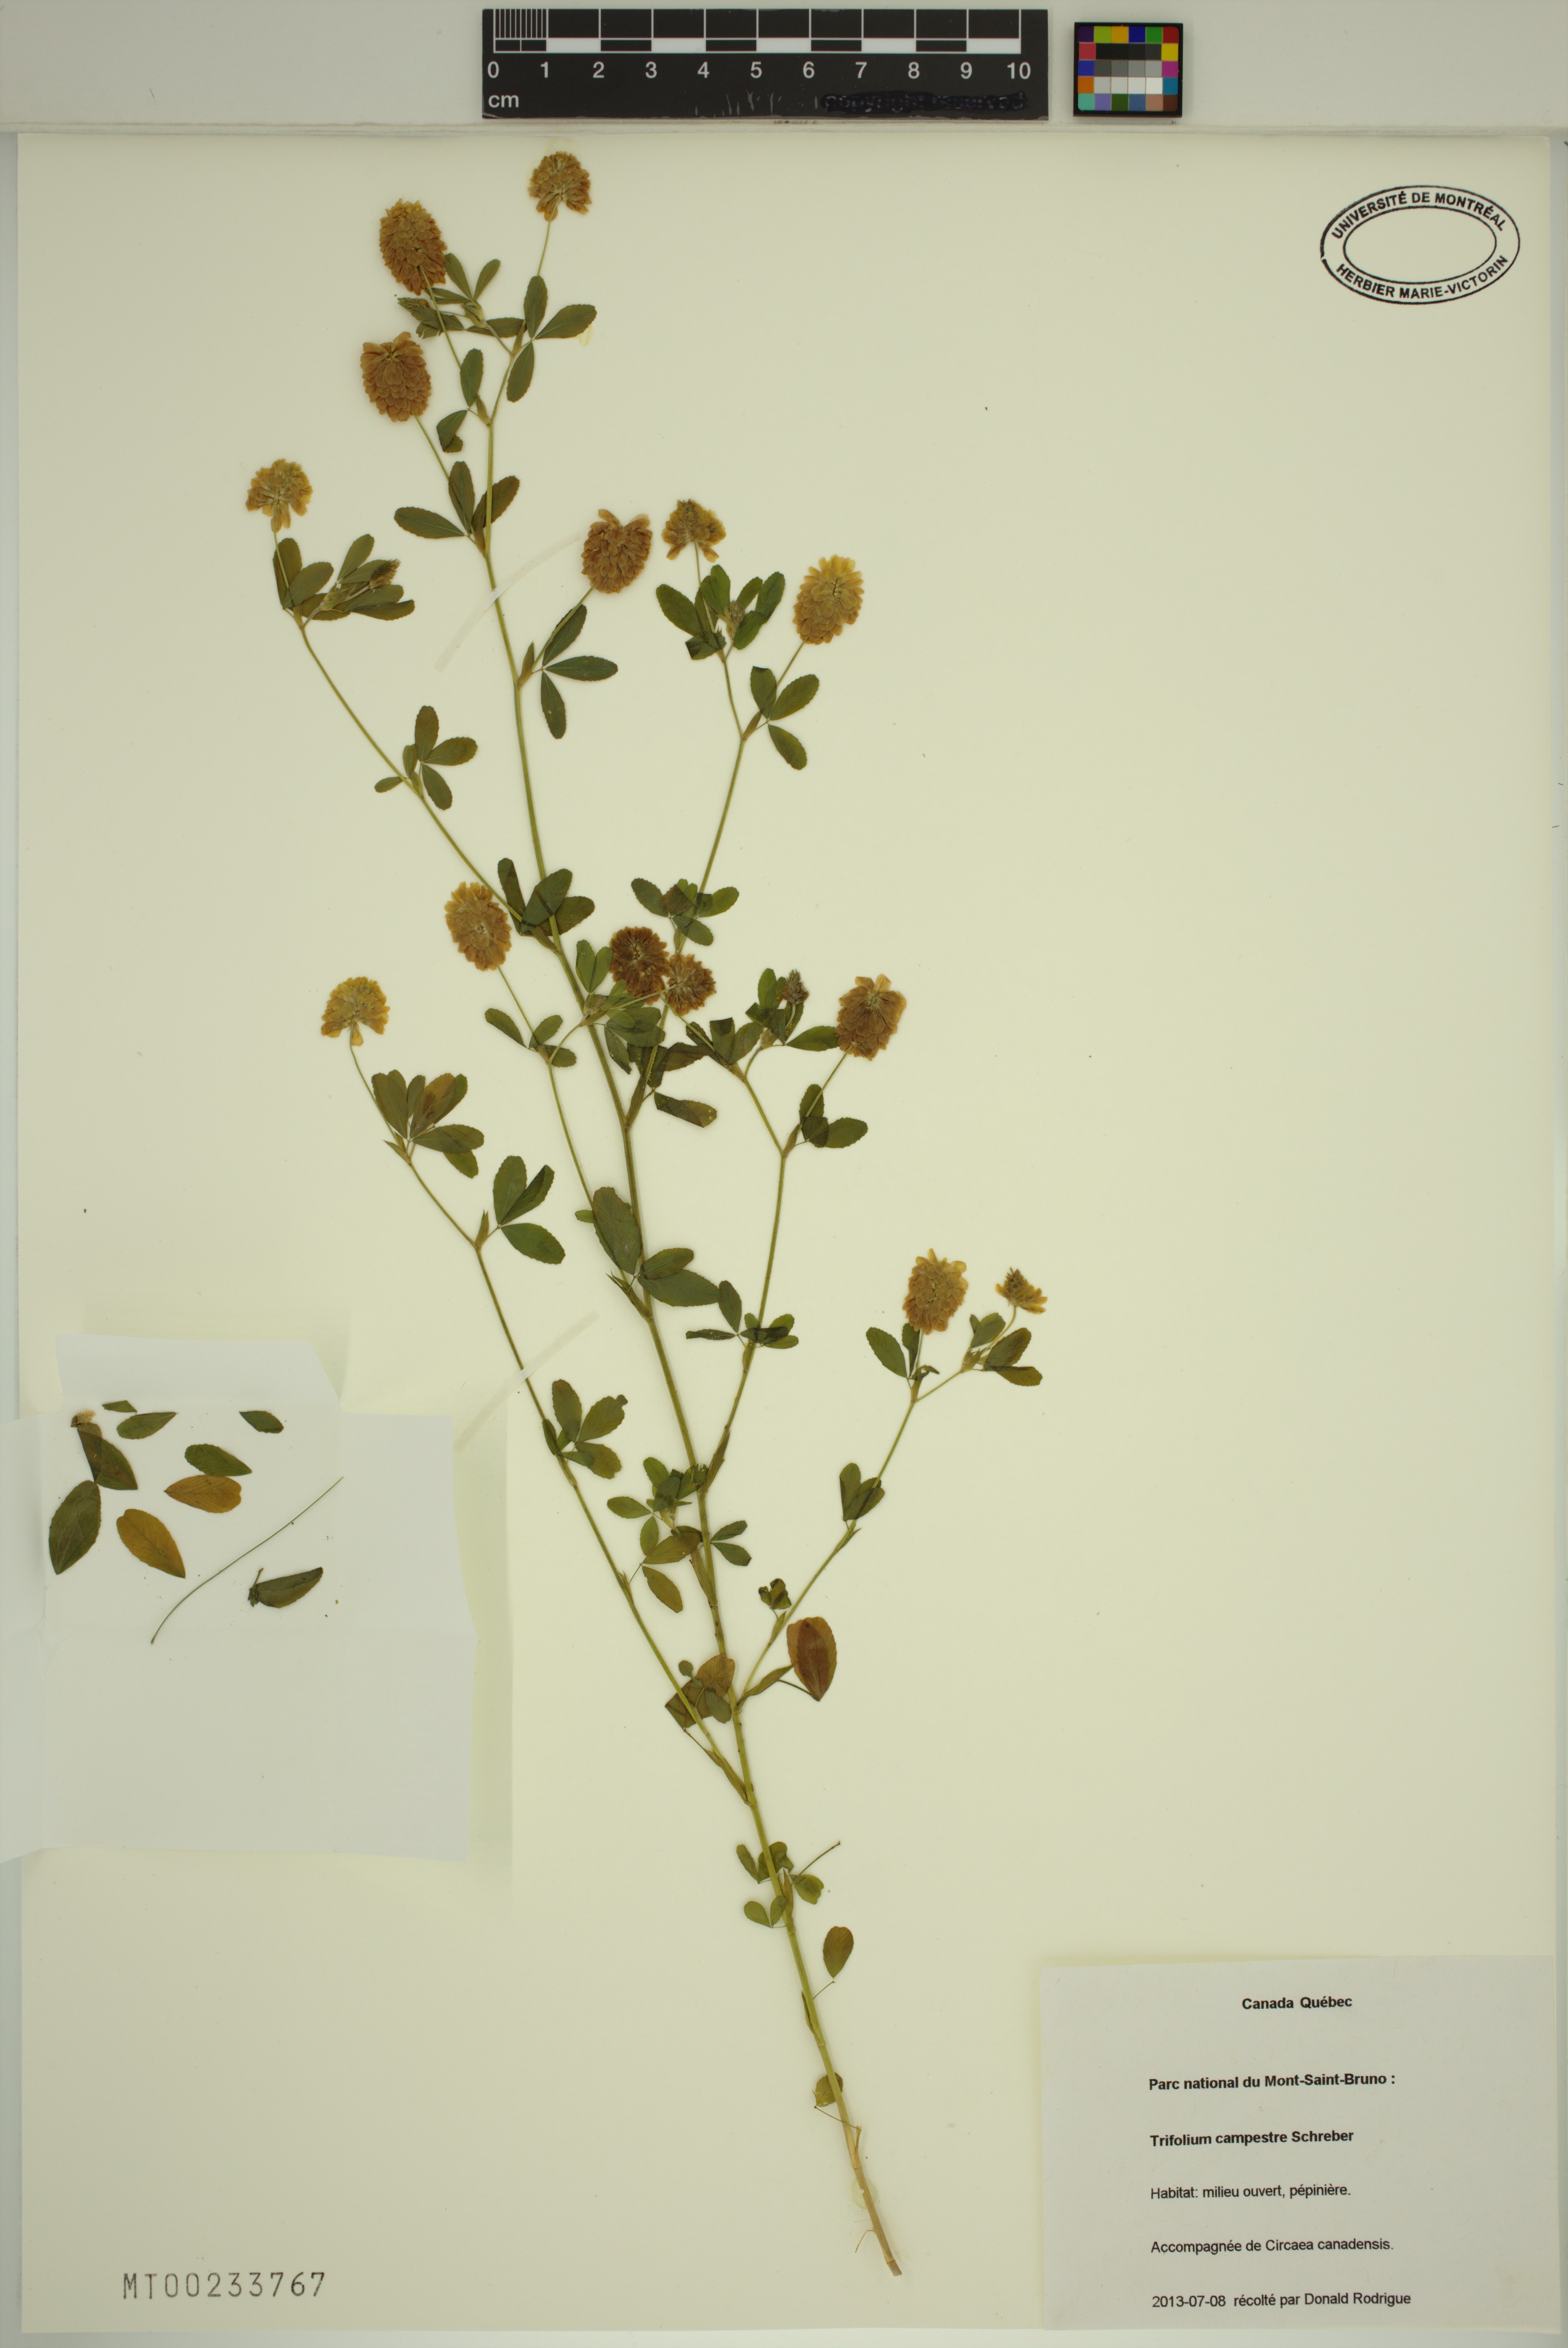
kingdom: Plantae
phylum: Tracheophyta
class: Magnoliopsida
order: Fabales
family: Fabaceae
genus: Trifolium
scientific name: Trifolium campestre
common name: Field clover
